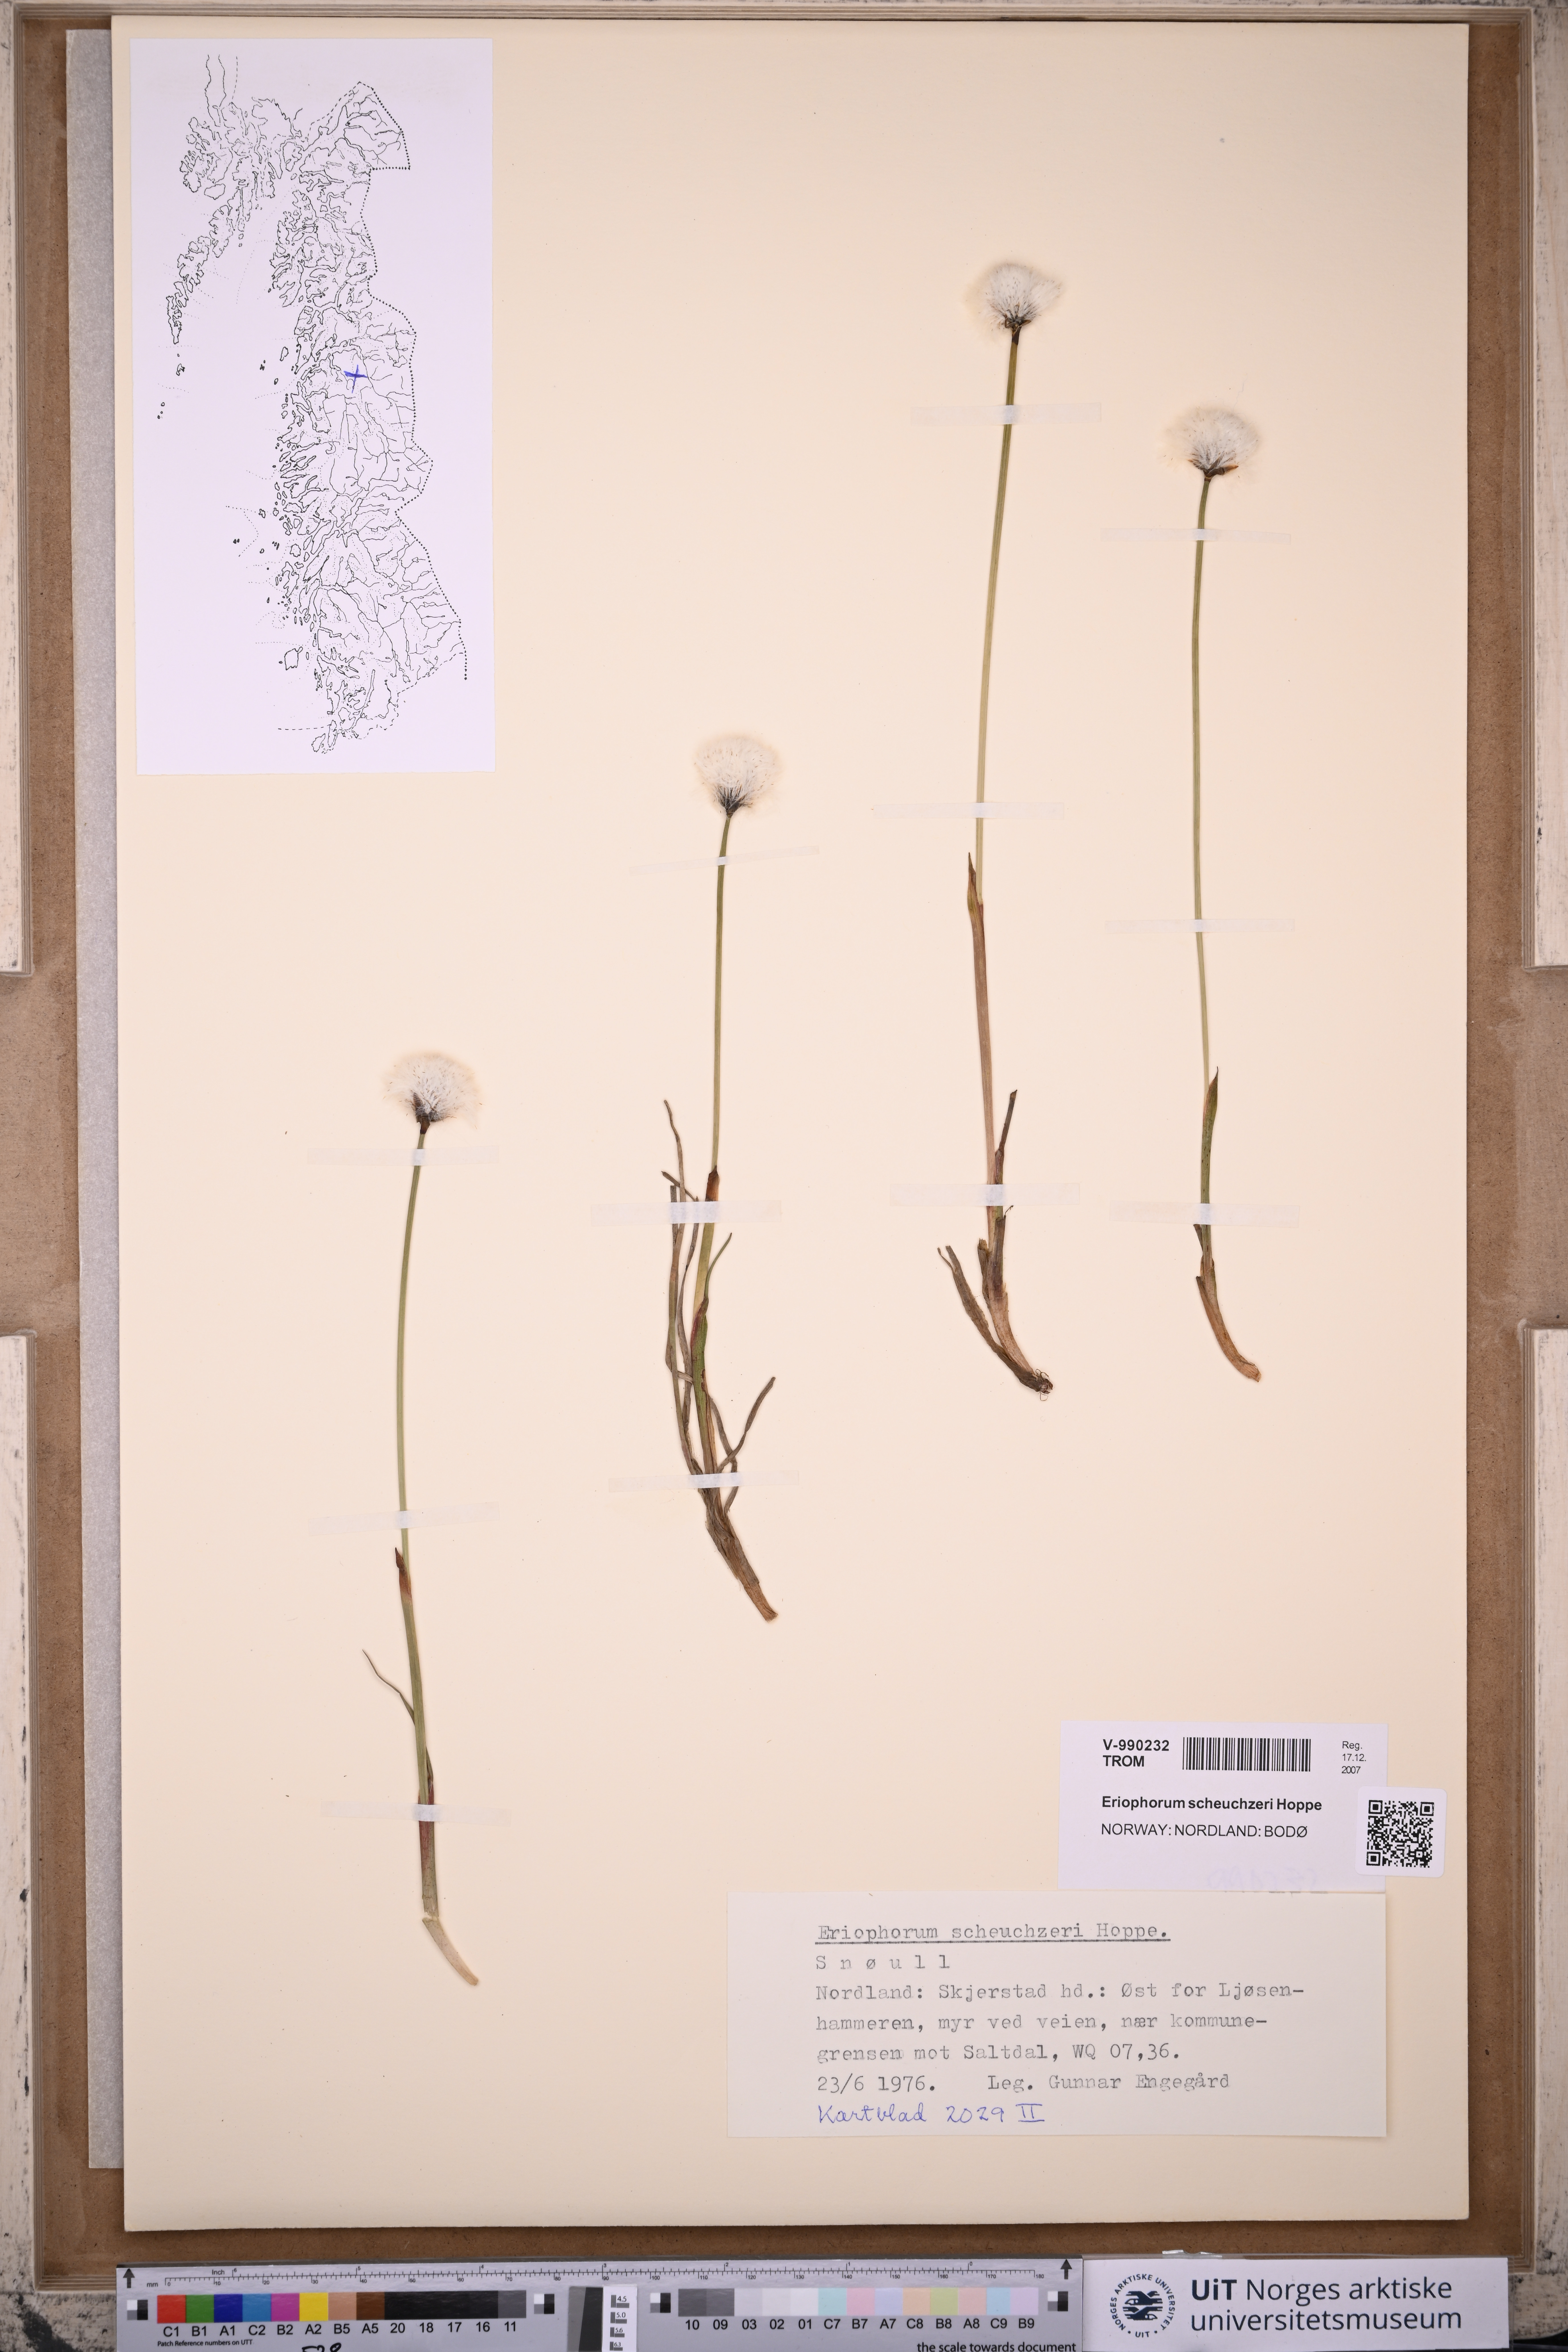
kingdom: Plantae
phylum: Tracheophyta
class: Liliopsida
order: Poales
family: Cyperaceae
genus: Eriophorum
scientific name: Eriophorum scheuchzeri
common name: Scheuchzer's cottongrass
